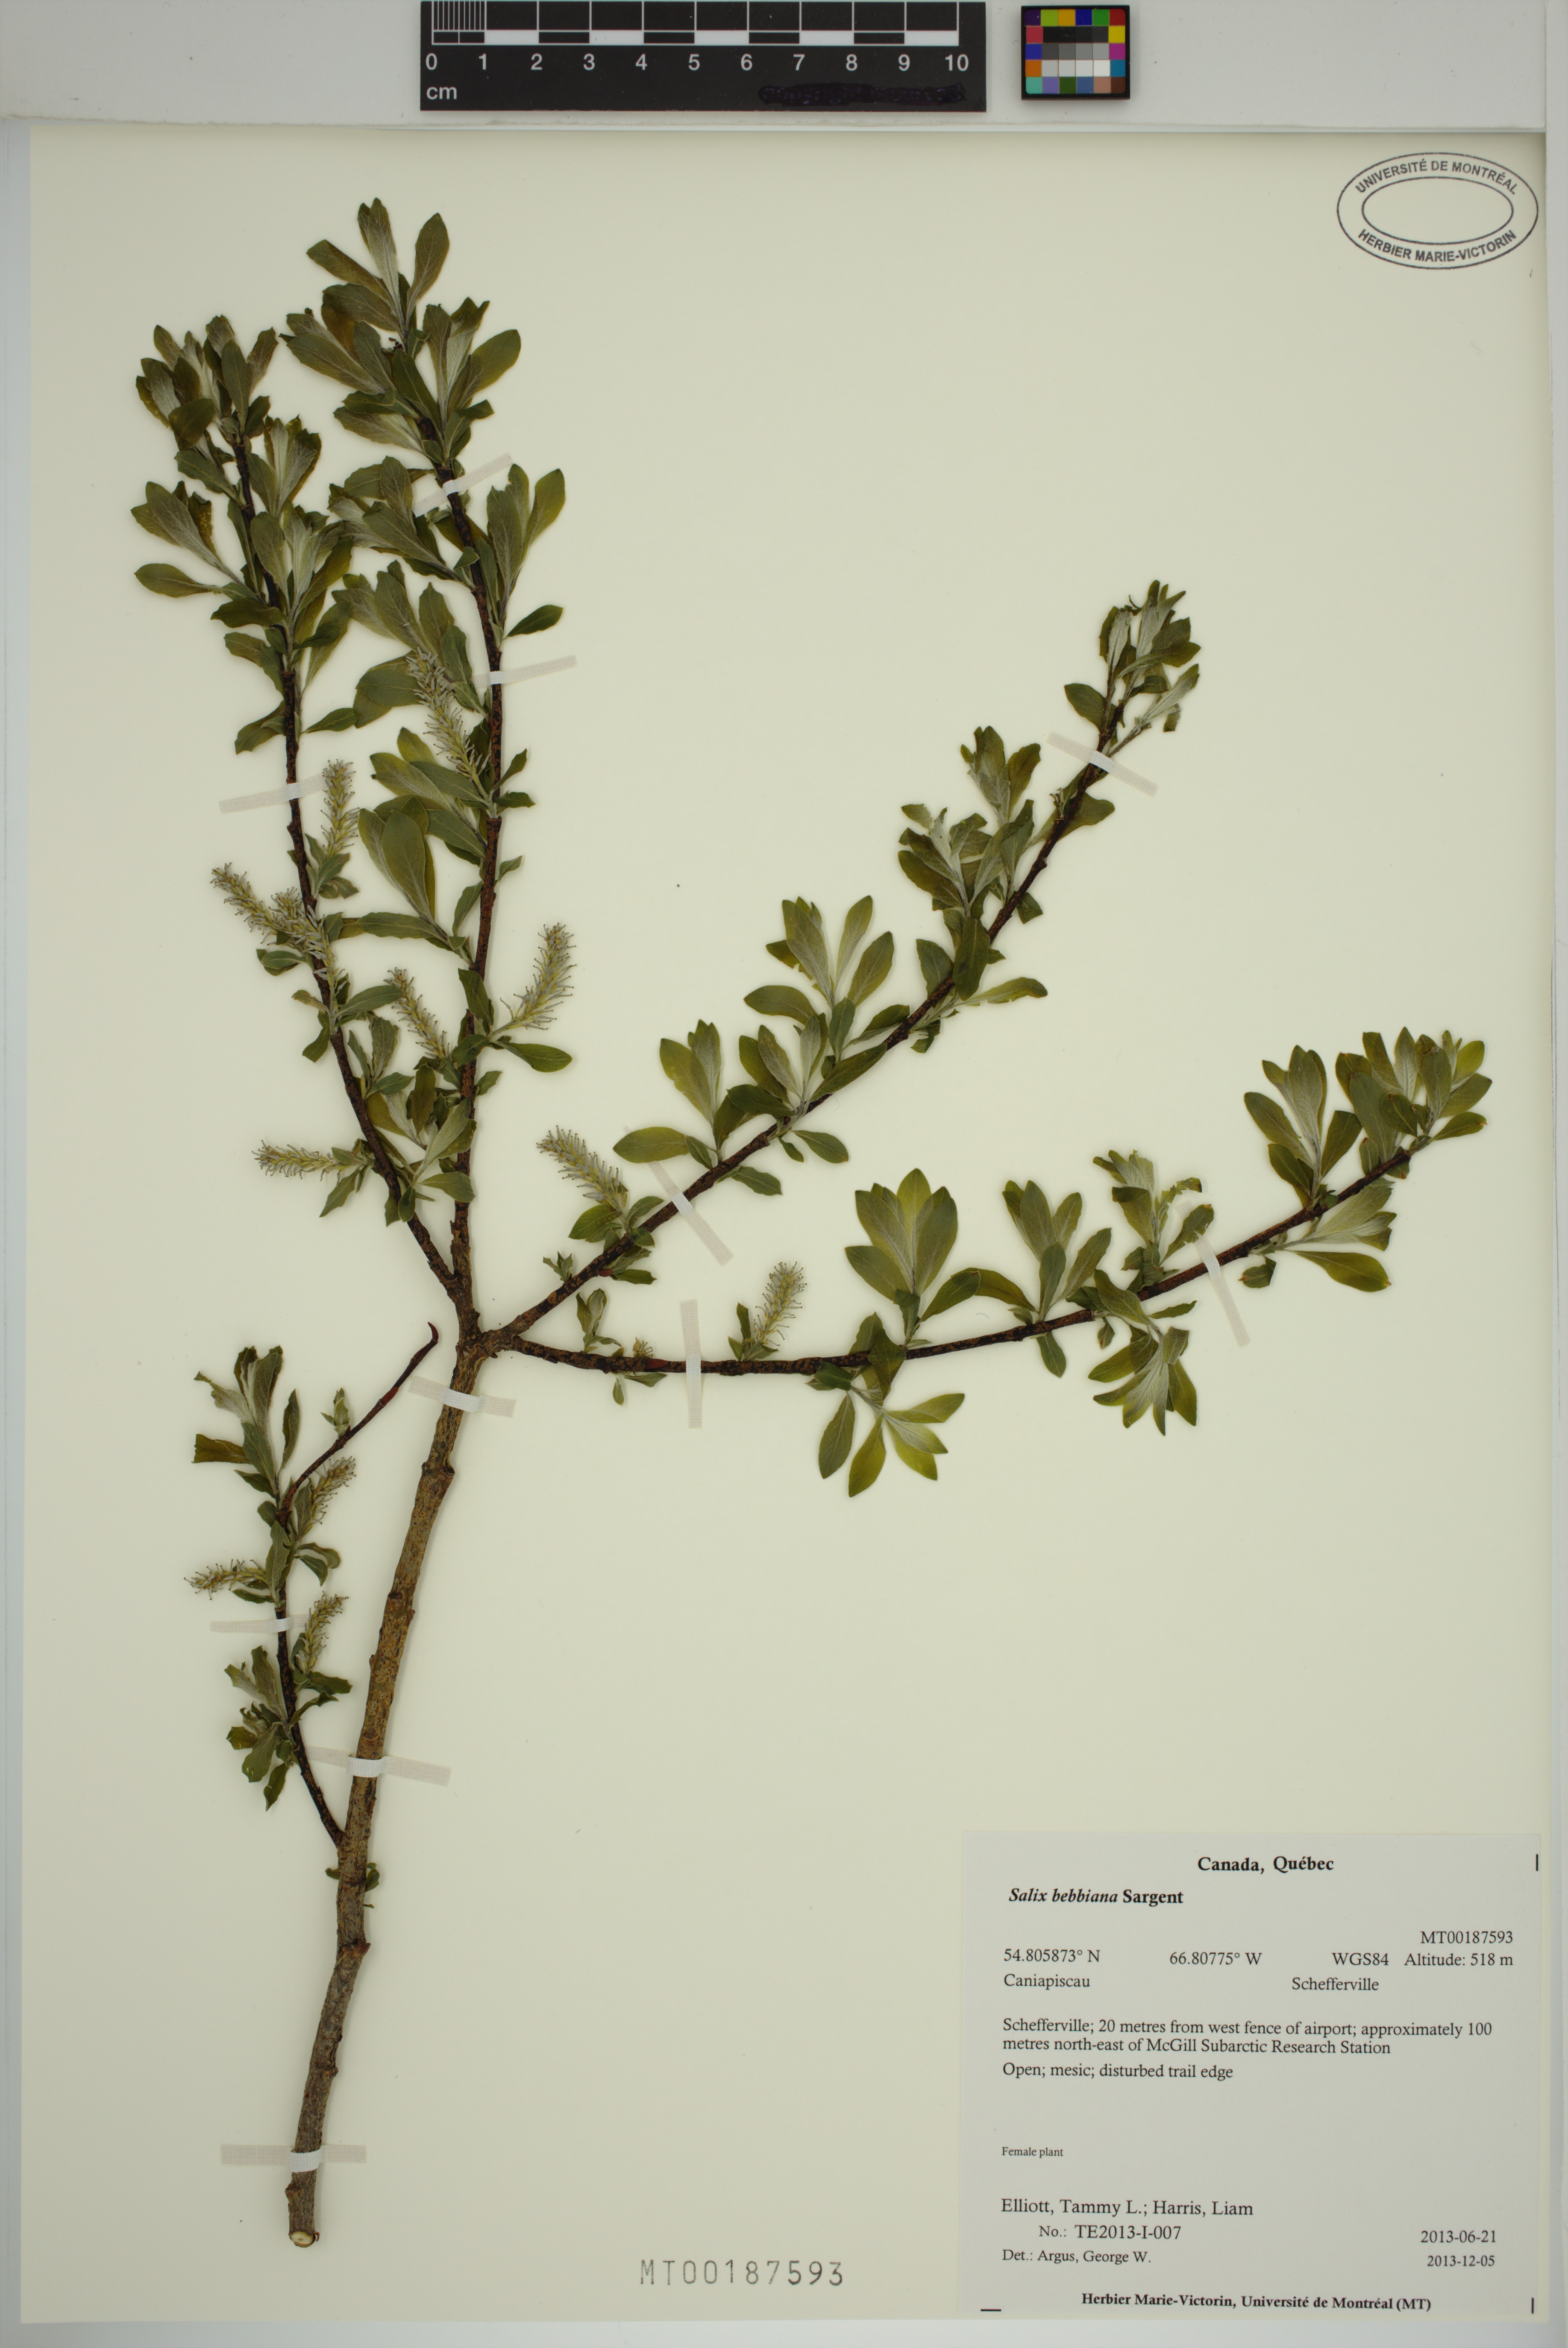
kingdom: Plantae
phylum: Tracheophyta
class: Magnoliopsida
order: Malpighiales
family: Salicaceae
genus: Salix
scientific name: Salix bebbiana
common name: Bebb's willow
